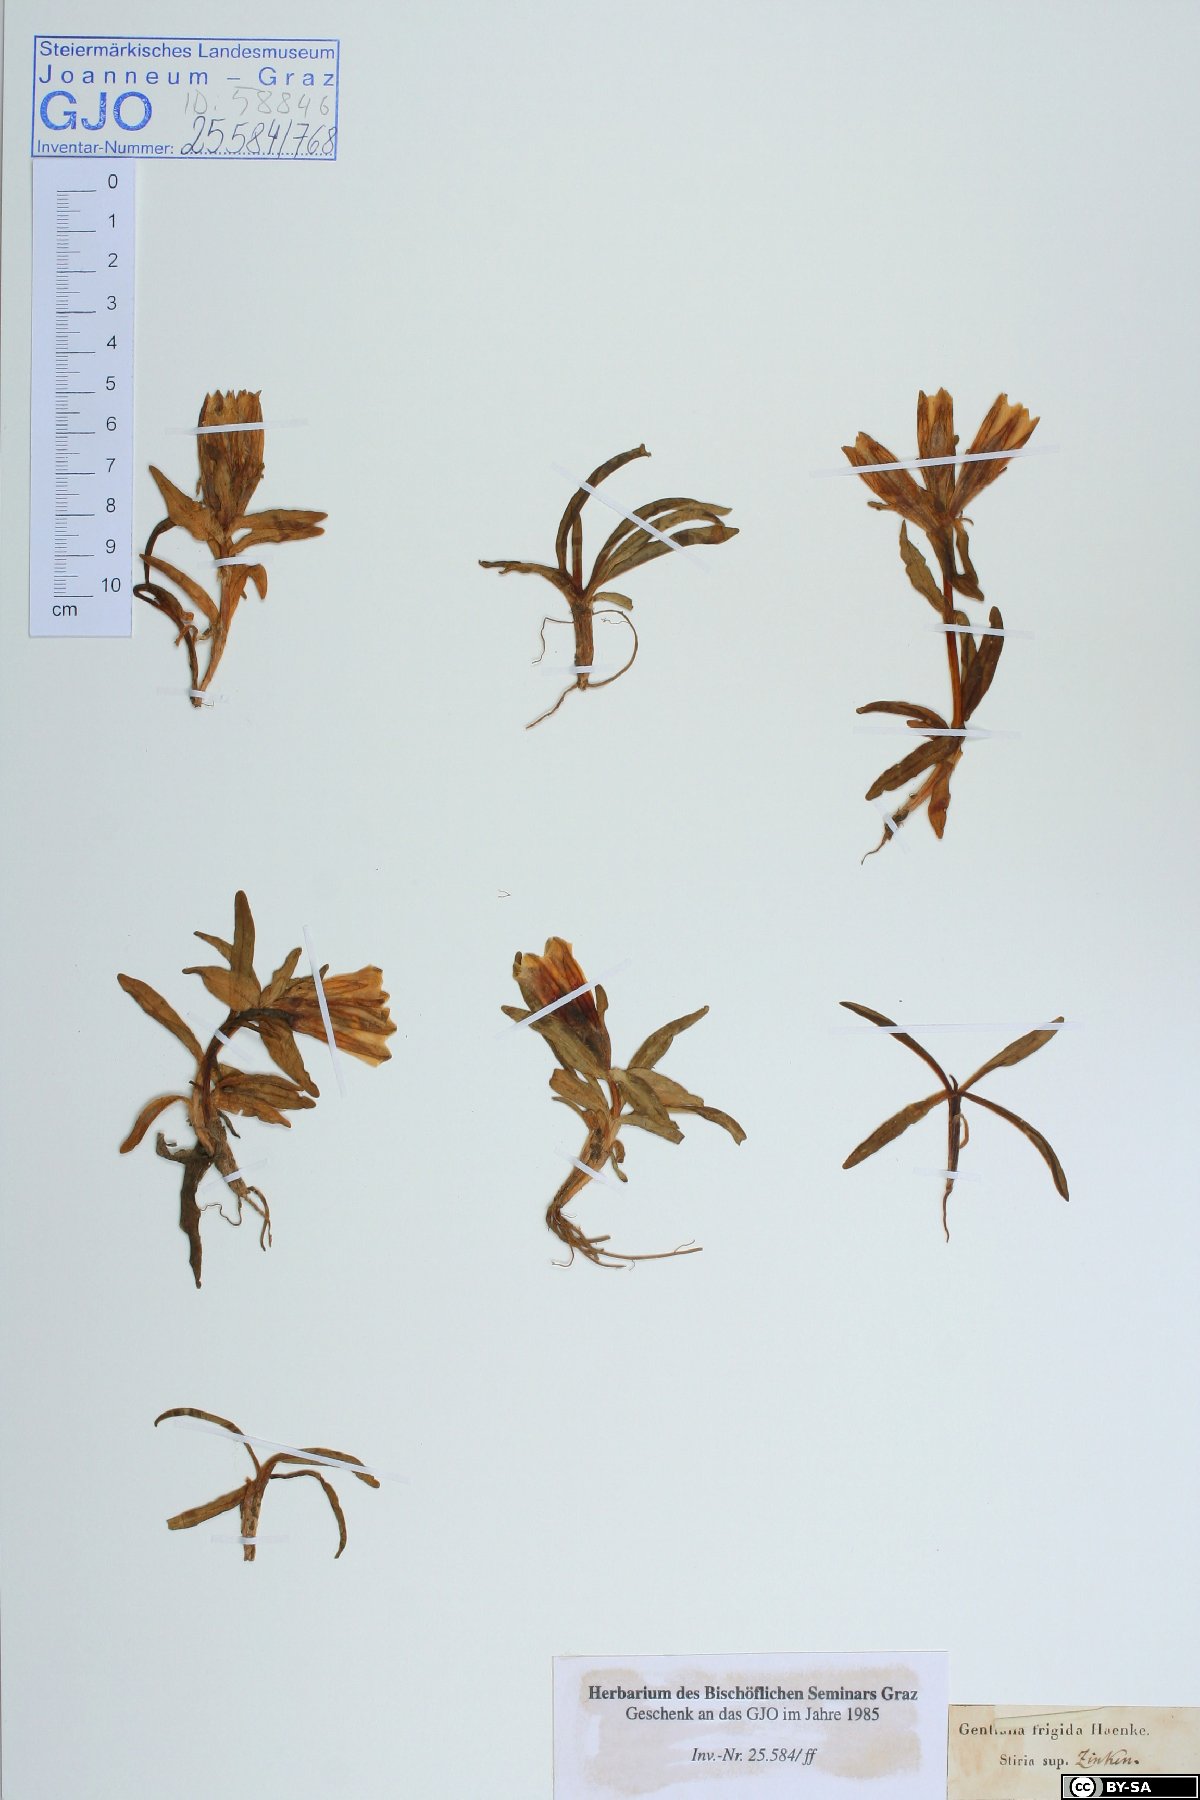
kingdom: Plantae
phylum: Tracheophyta
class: Magnoliopsida
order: Gentianales
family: Gentianaceae
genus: Gentiana
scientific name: Gentiana frigida
